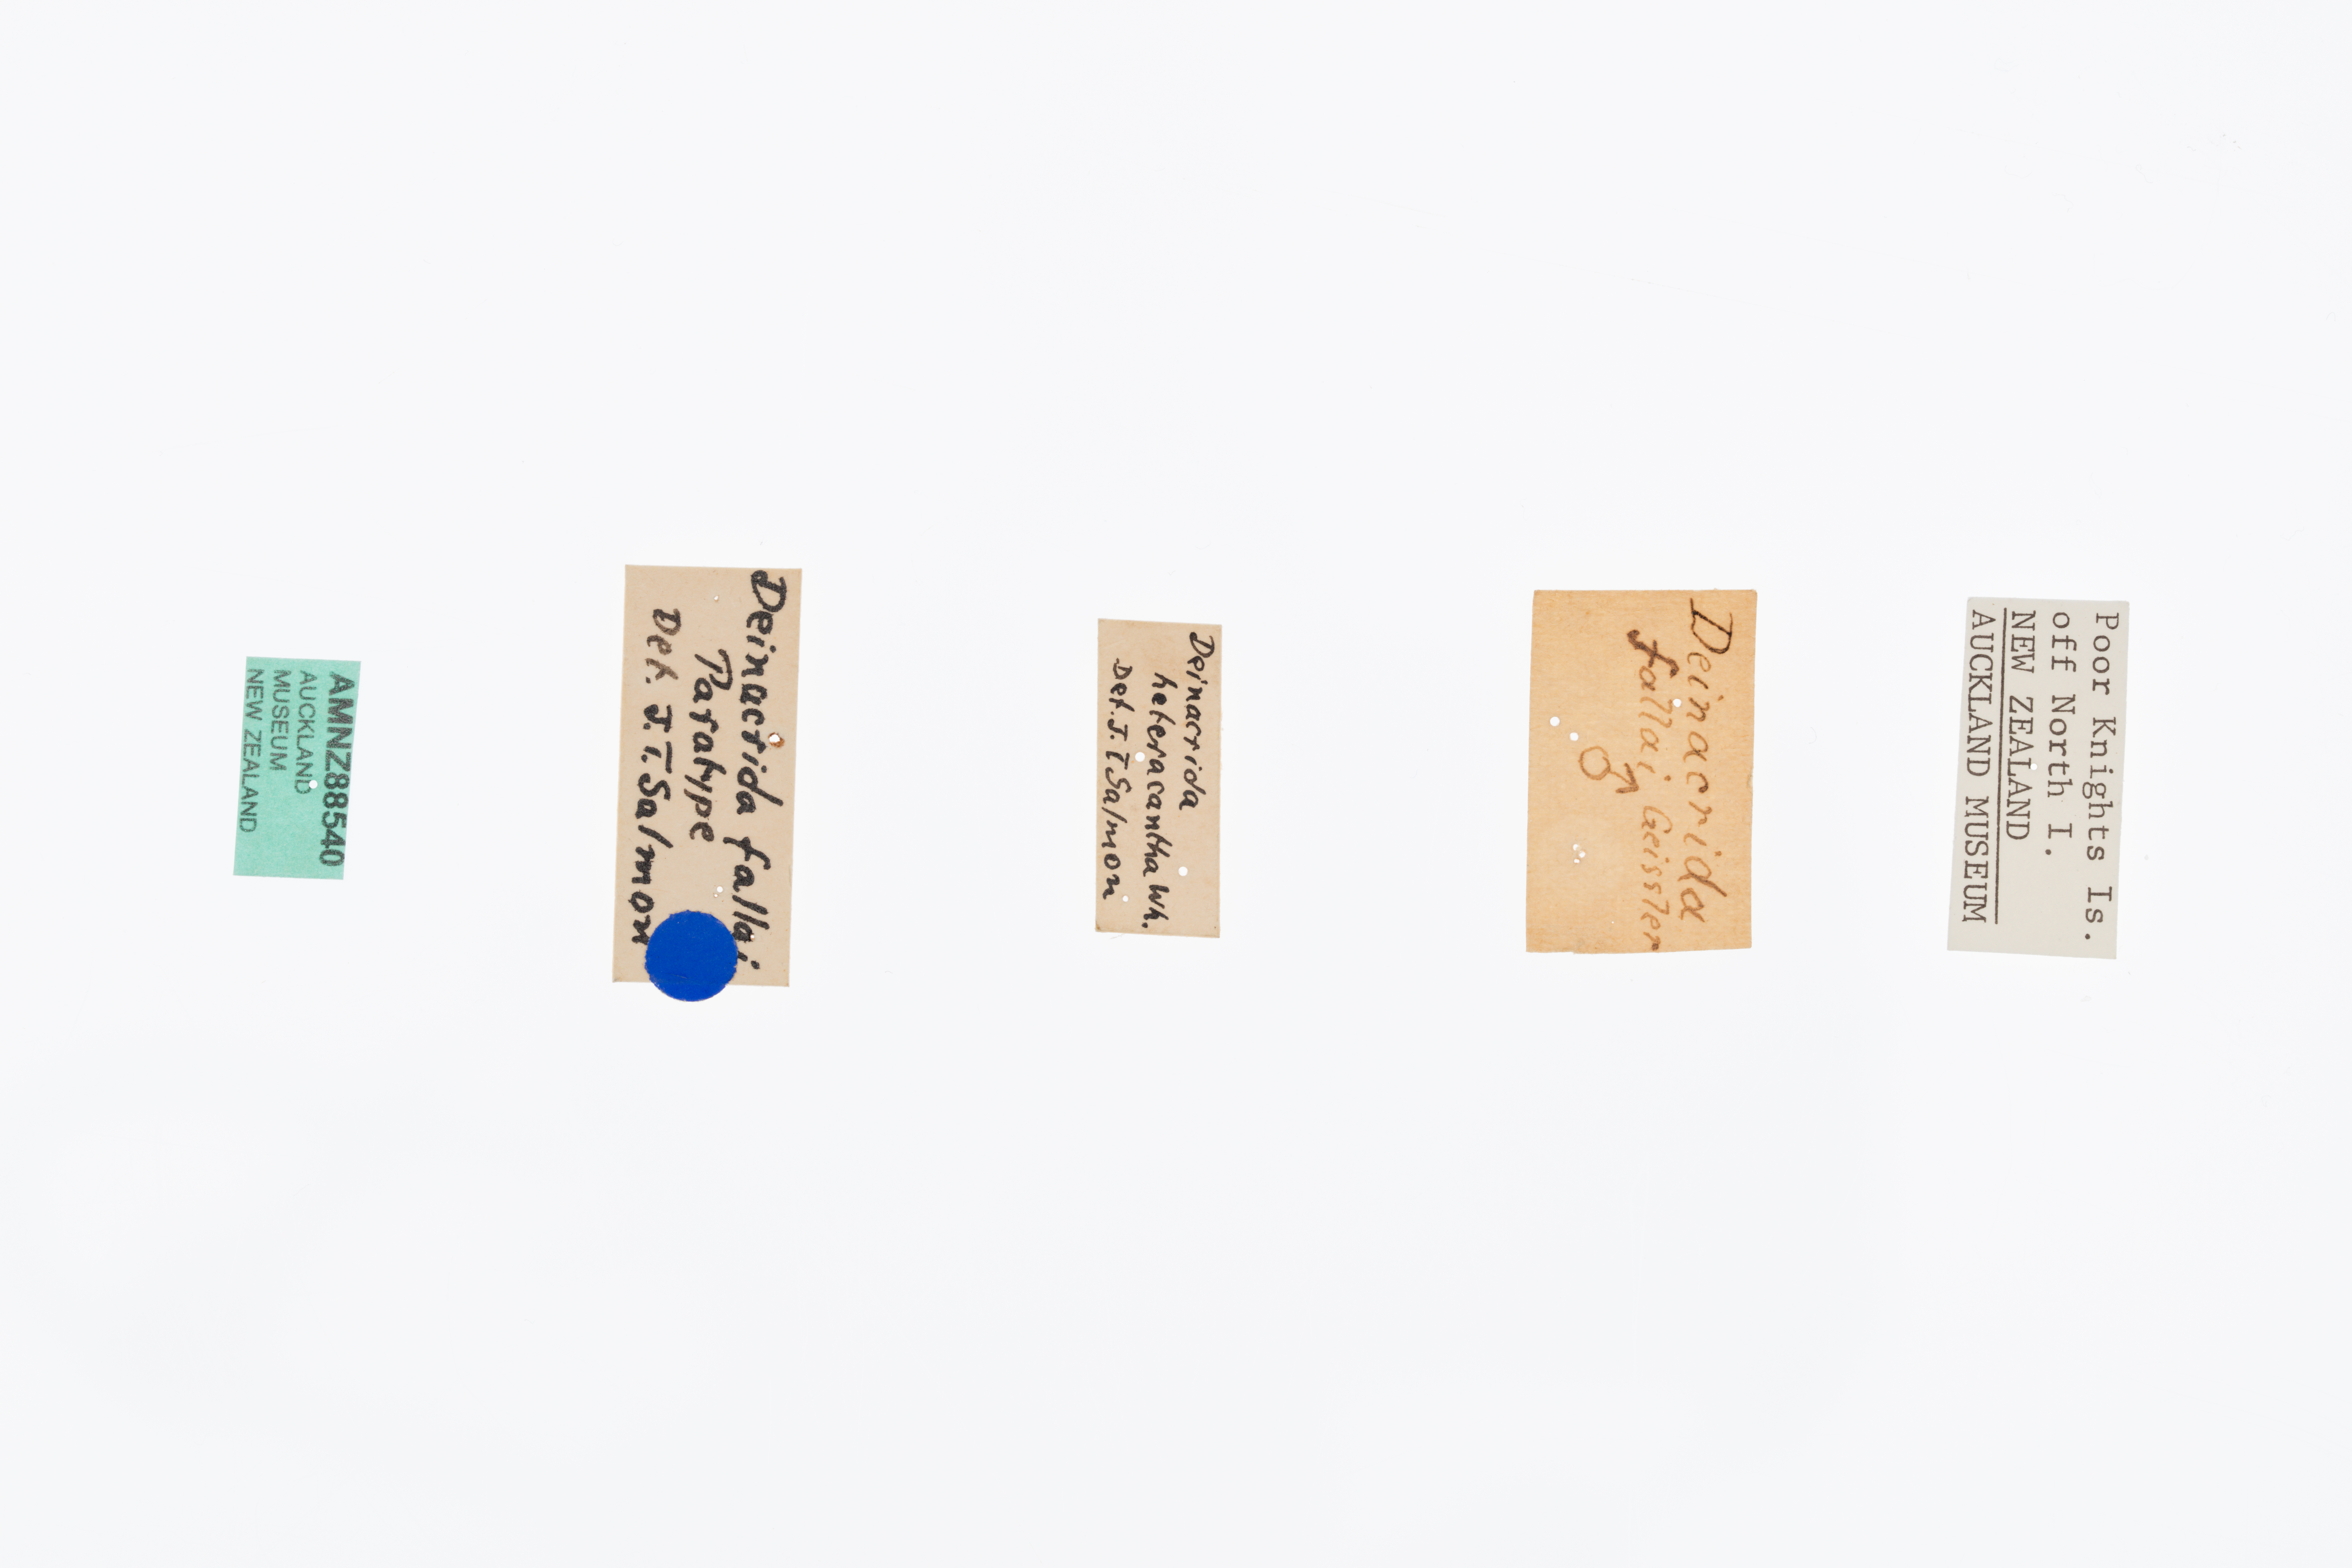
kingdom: Animalia
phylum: Arthropoda
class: Insecta
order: Orthoptera
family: Anostostomatidae
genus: Deinacrida
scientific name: Deinacrida fallai
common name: Poor knights weta
